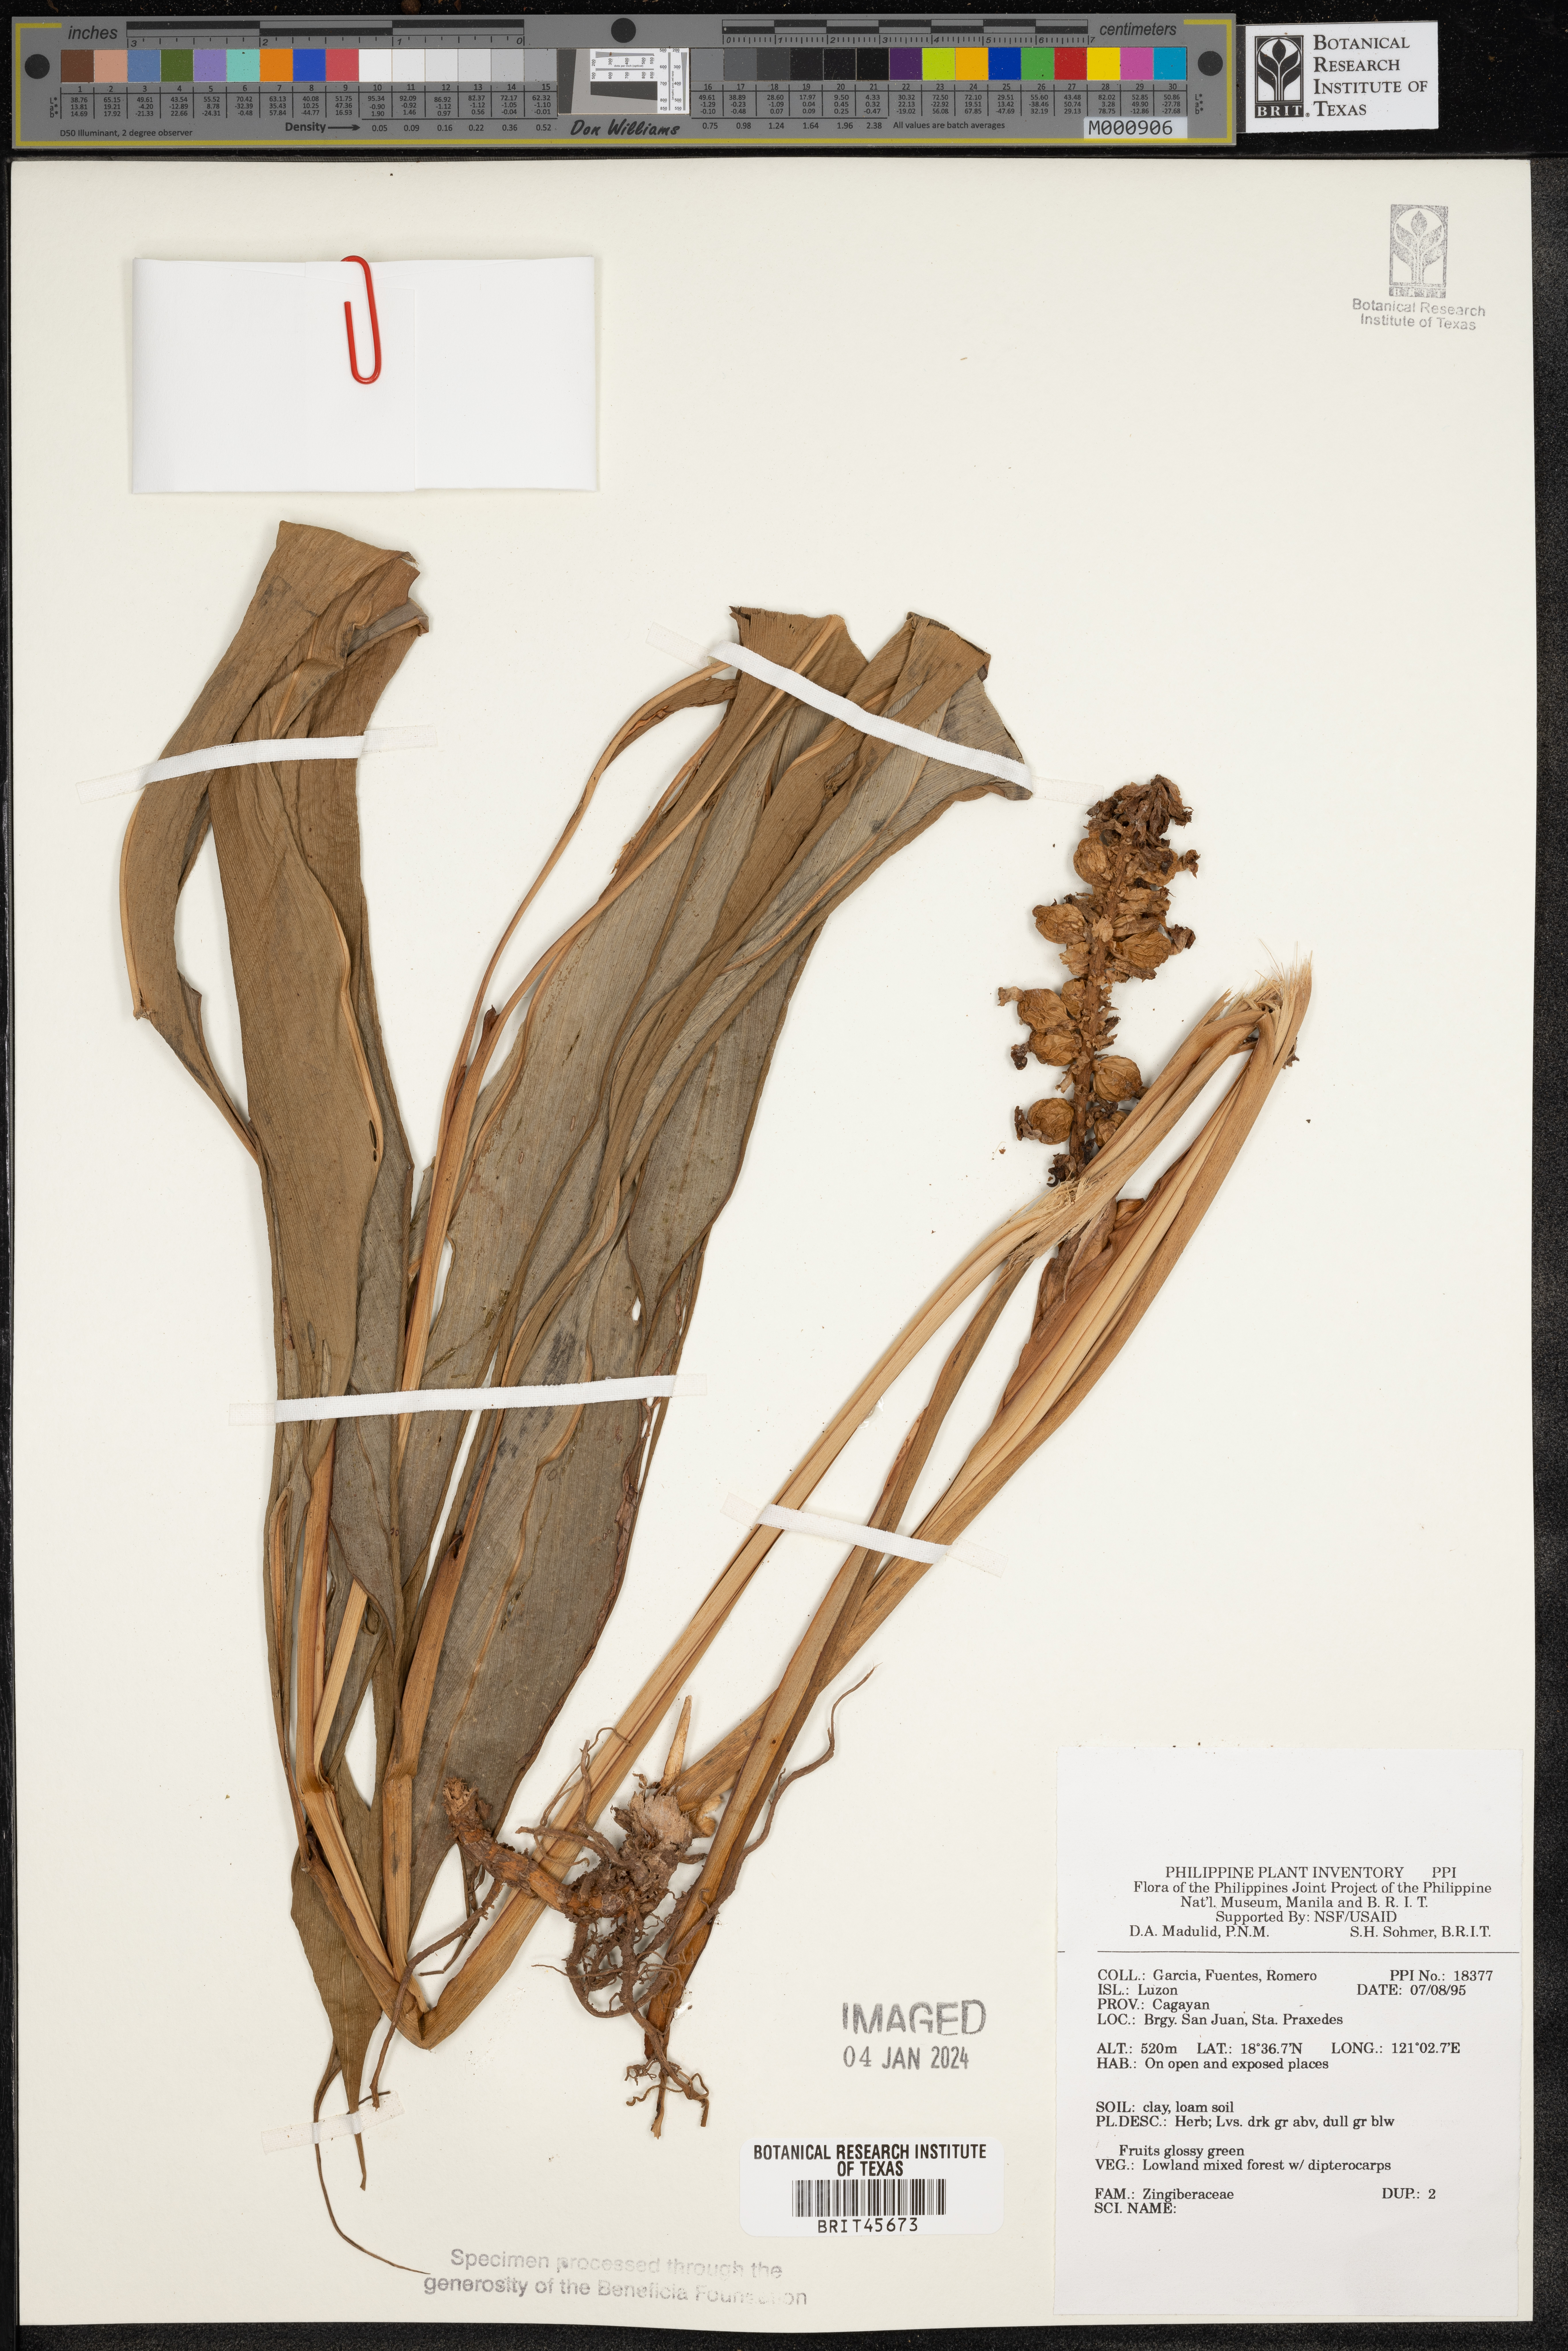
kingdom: Plantae
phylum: Tracheophyta
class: Liliopsida
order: Zingiberales
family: Zingiberaceae
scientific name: Zingiberaceae
